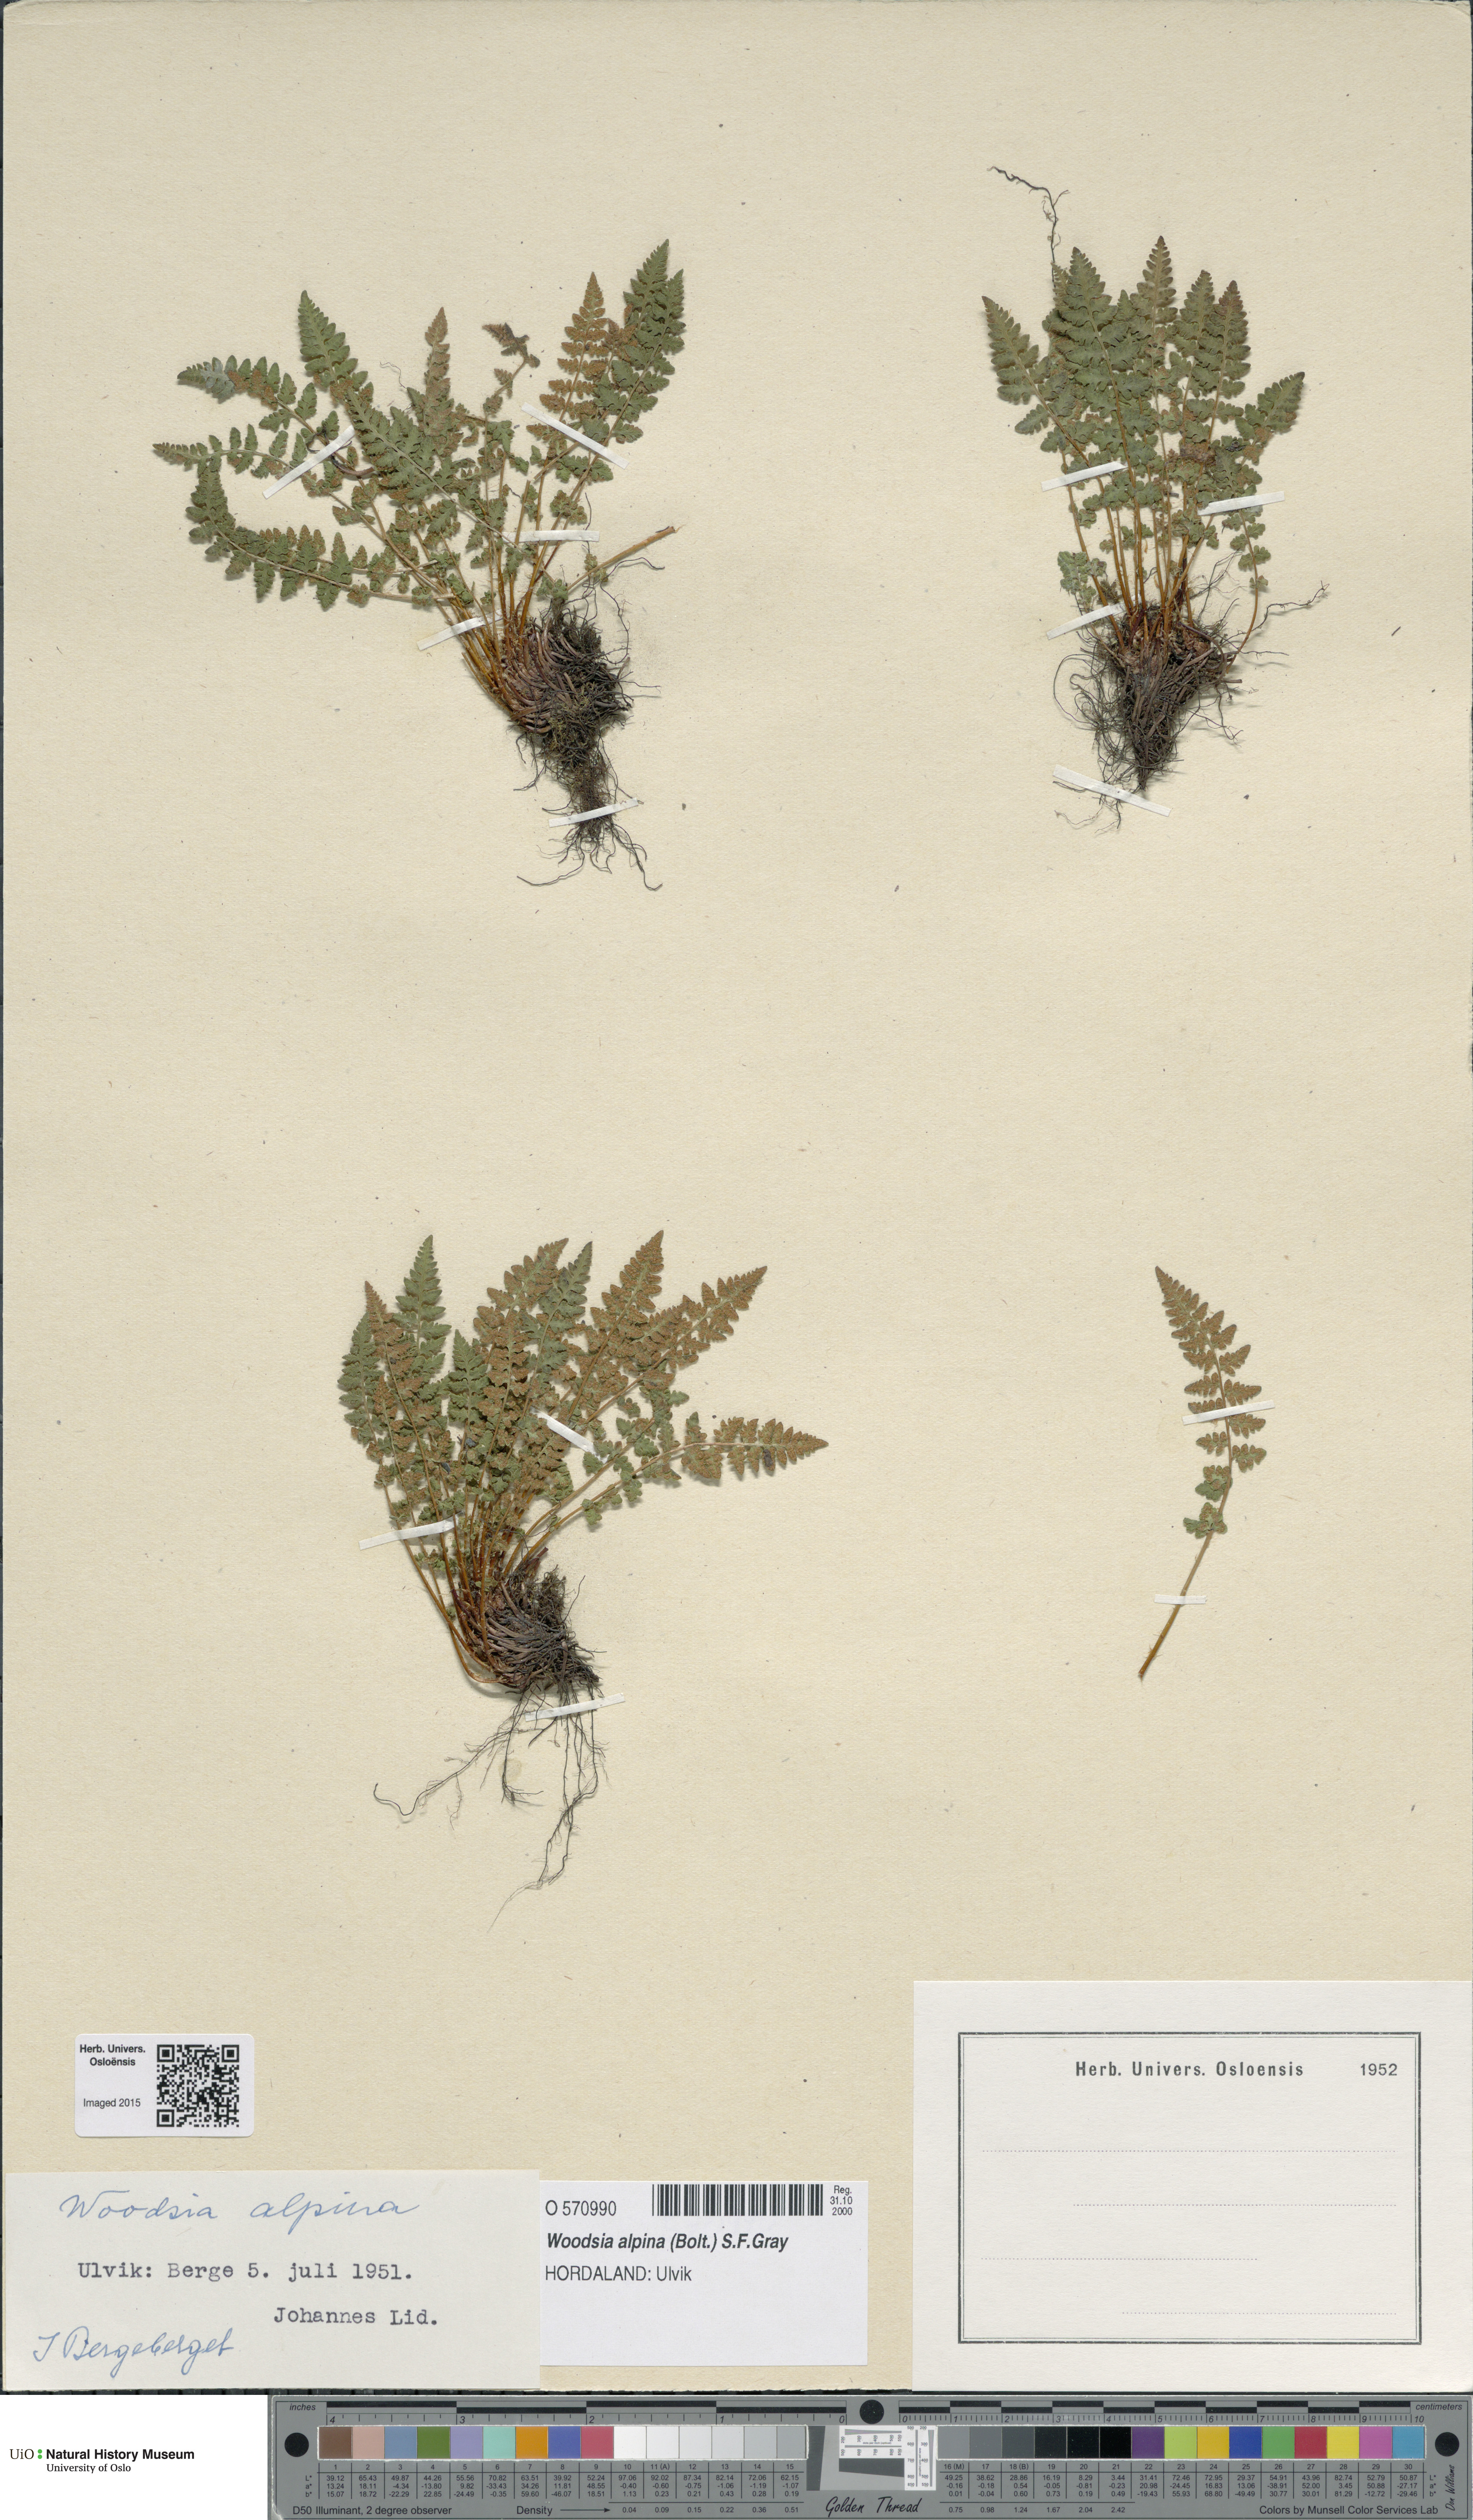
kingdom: Plantae
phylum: Tracheophyta
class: Polypodiopsida
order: Polypodiales
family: Woodsiaceae
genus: Woodsia
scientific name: Woodsia alpina
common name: Alpine woodsia
